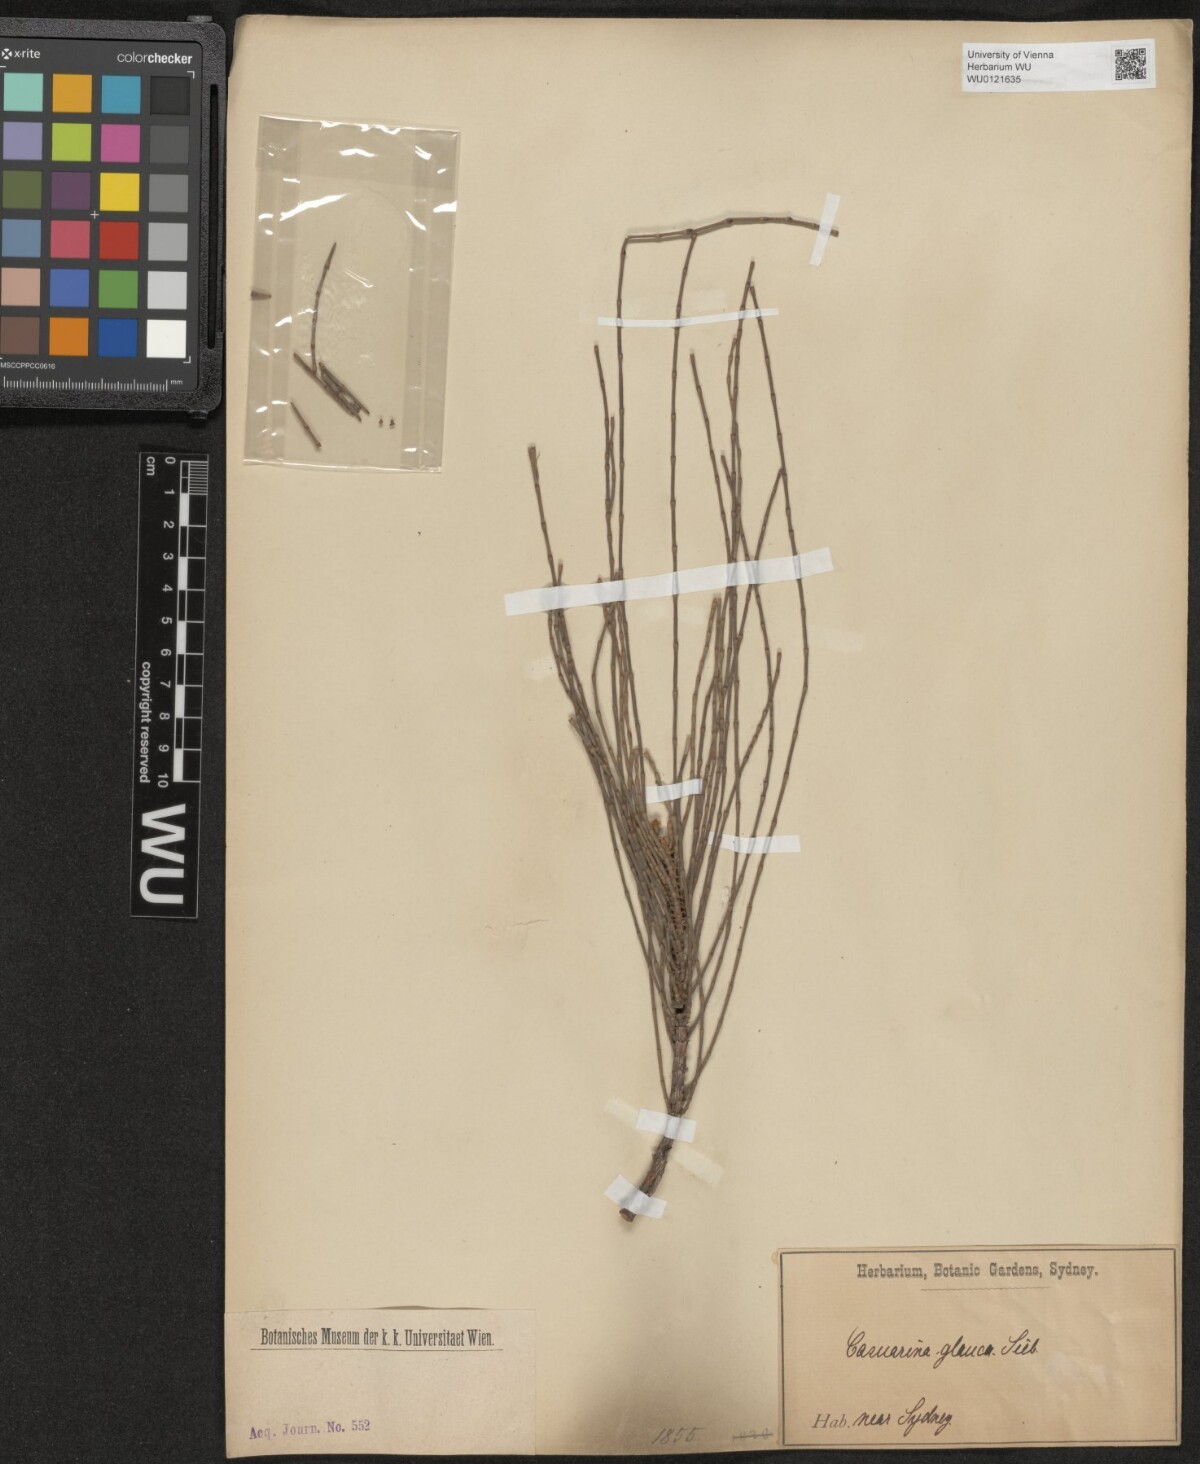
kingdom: Plantae
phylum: Tracheophyta
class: Magnoliopsida
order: Fagales
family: Casuarinaceae
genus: Casuarina
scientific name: Casuarina glauca
